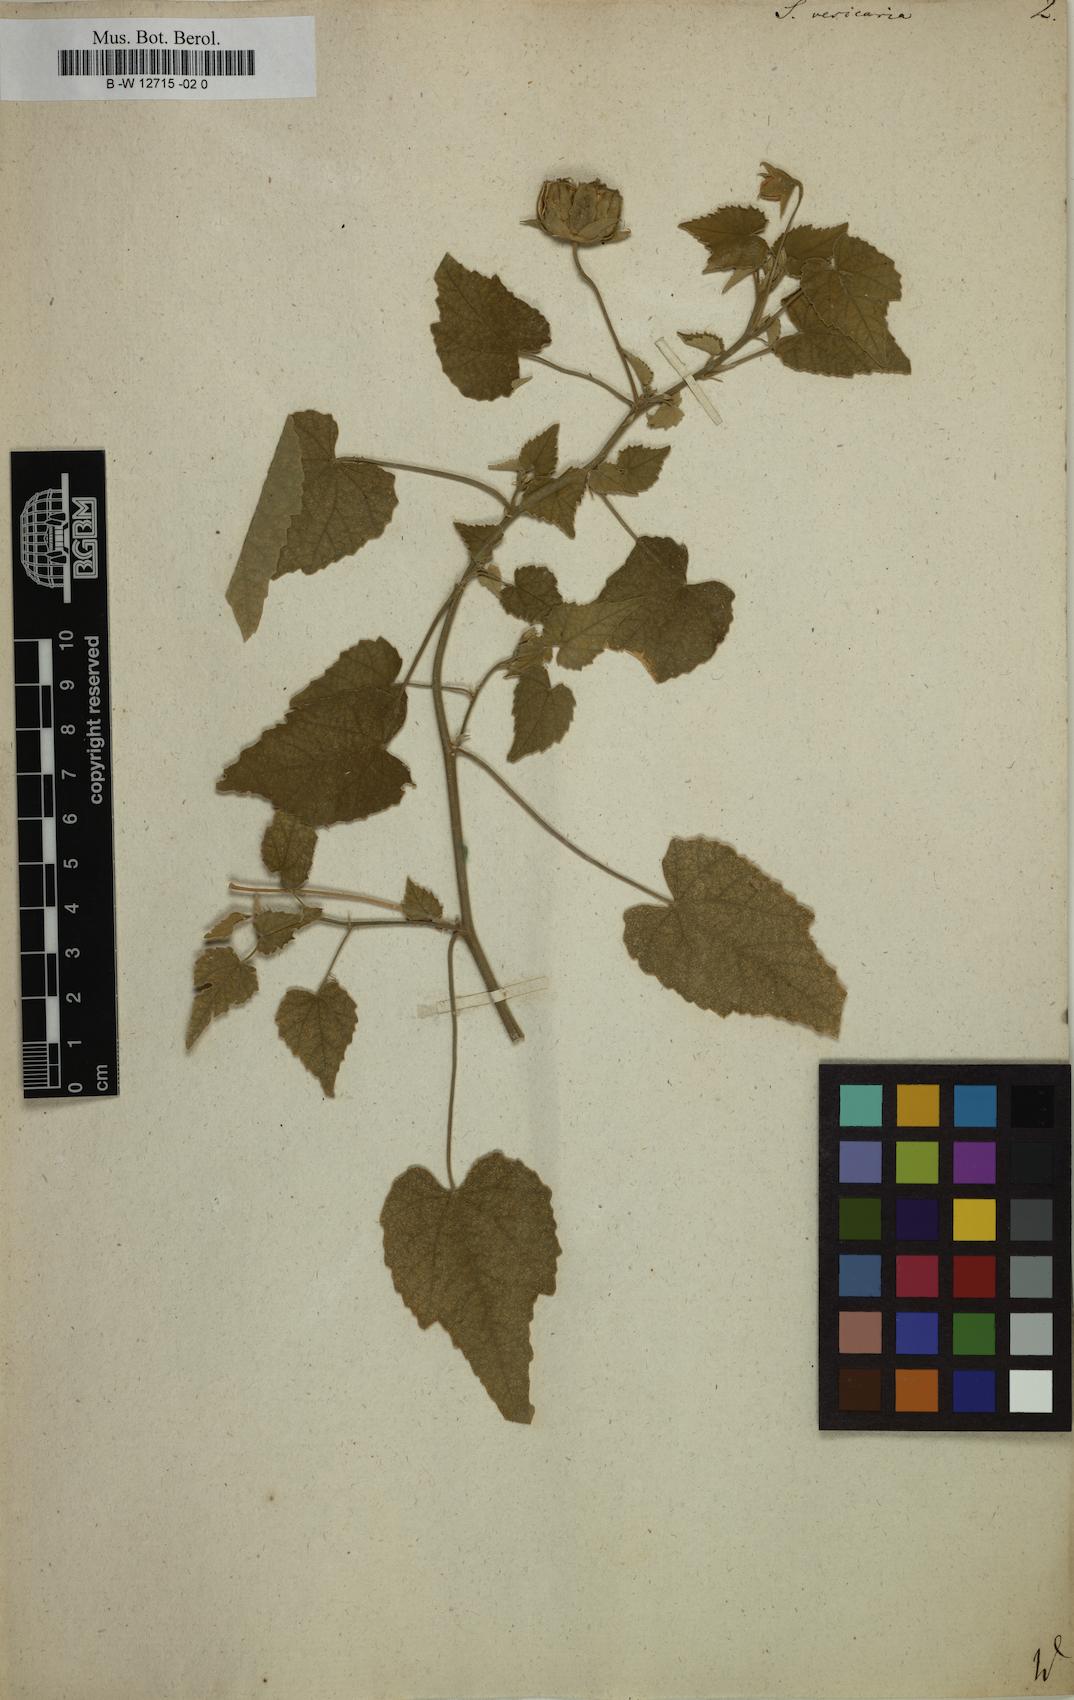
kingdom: Plantae
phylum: Tracheophyta
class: Magnoliopsida
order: Malvales
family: Malvaceae
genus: Abutilon
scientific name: Abutilon indicum
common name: Indian abutilon
